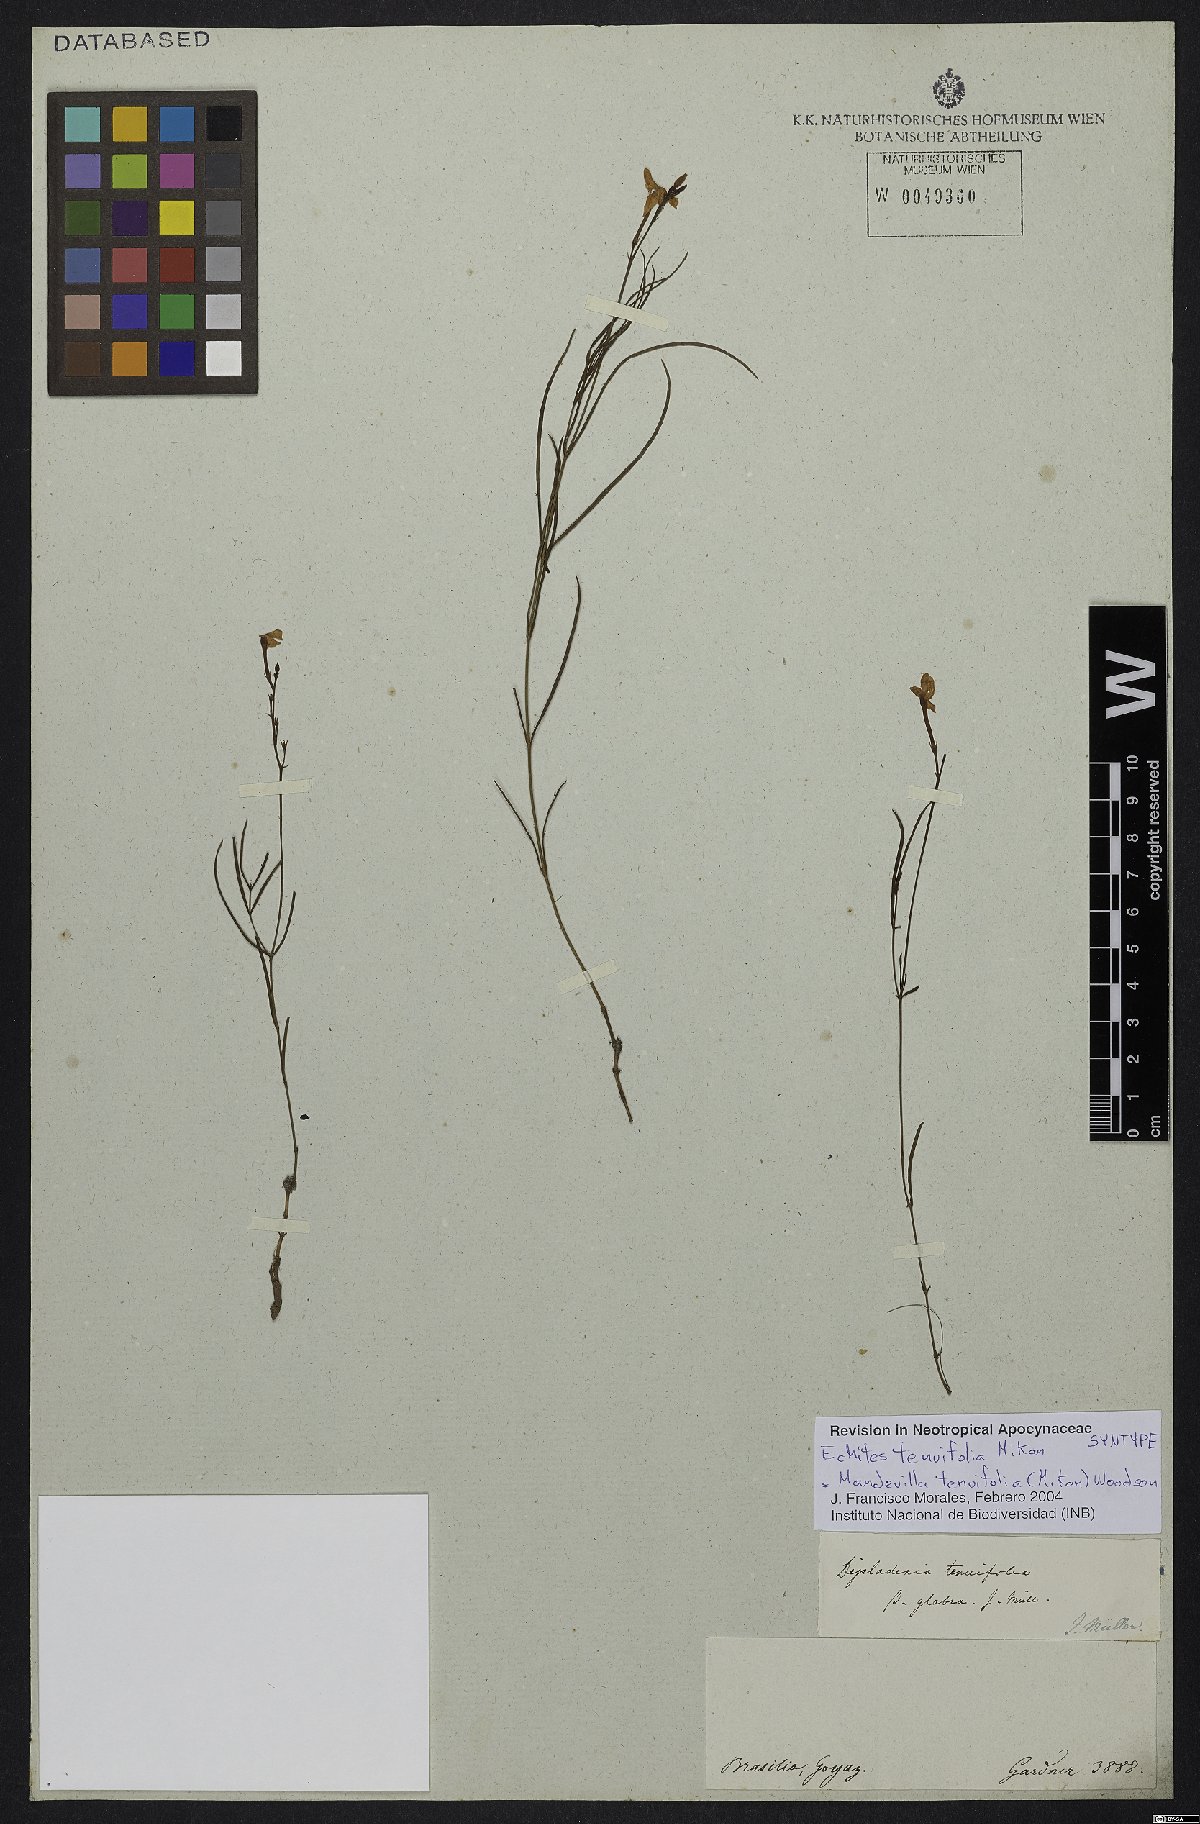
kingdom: Plantae
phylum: Tracheophyta
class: Magnoliopsida
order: Gentianales
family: Apocynaceae
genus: Mandevilla
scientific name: Mandevilla tenuifolia
